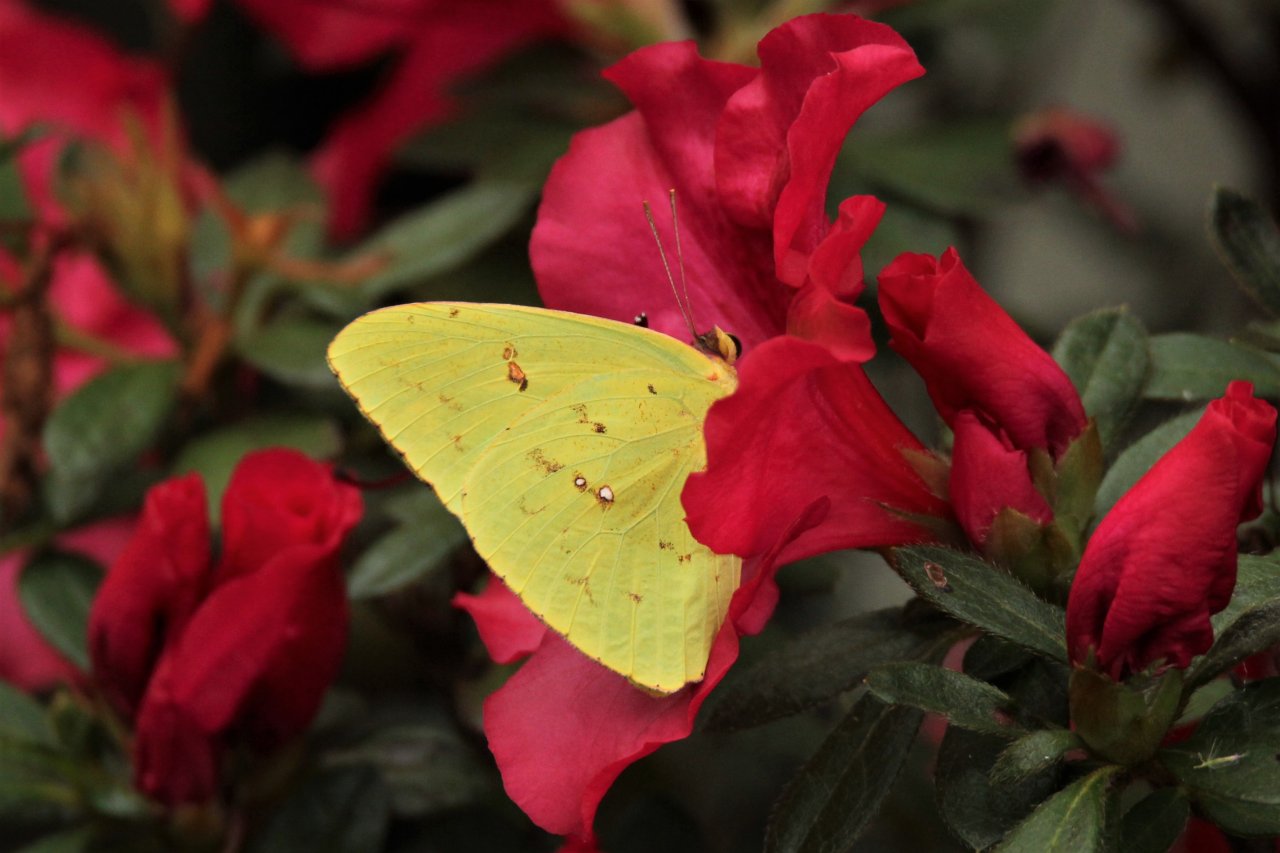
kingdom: Animalia
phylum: Arthropoda
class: Insecta
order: Lepidoptera
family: Pieridae
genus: Phoebis
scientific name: Phoebis sennae
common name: Cloudless Sulphur
